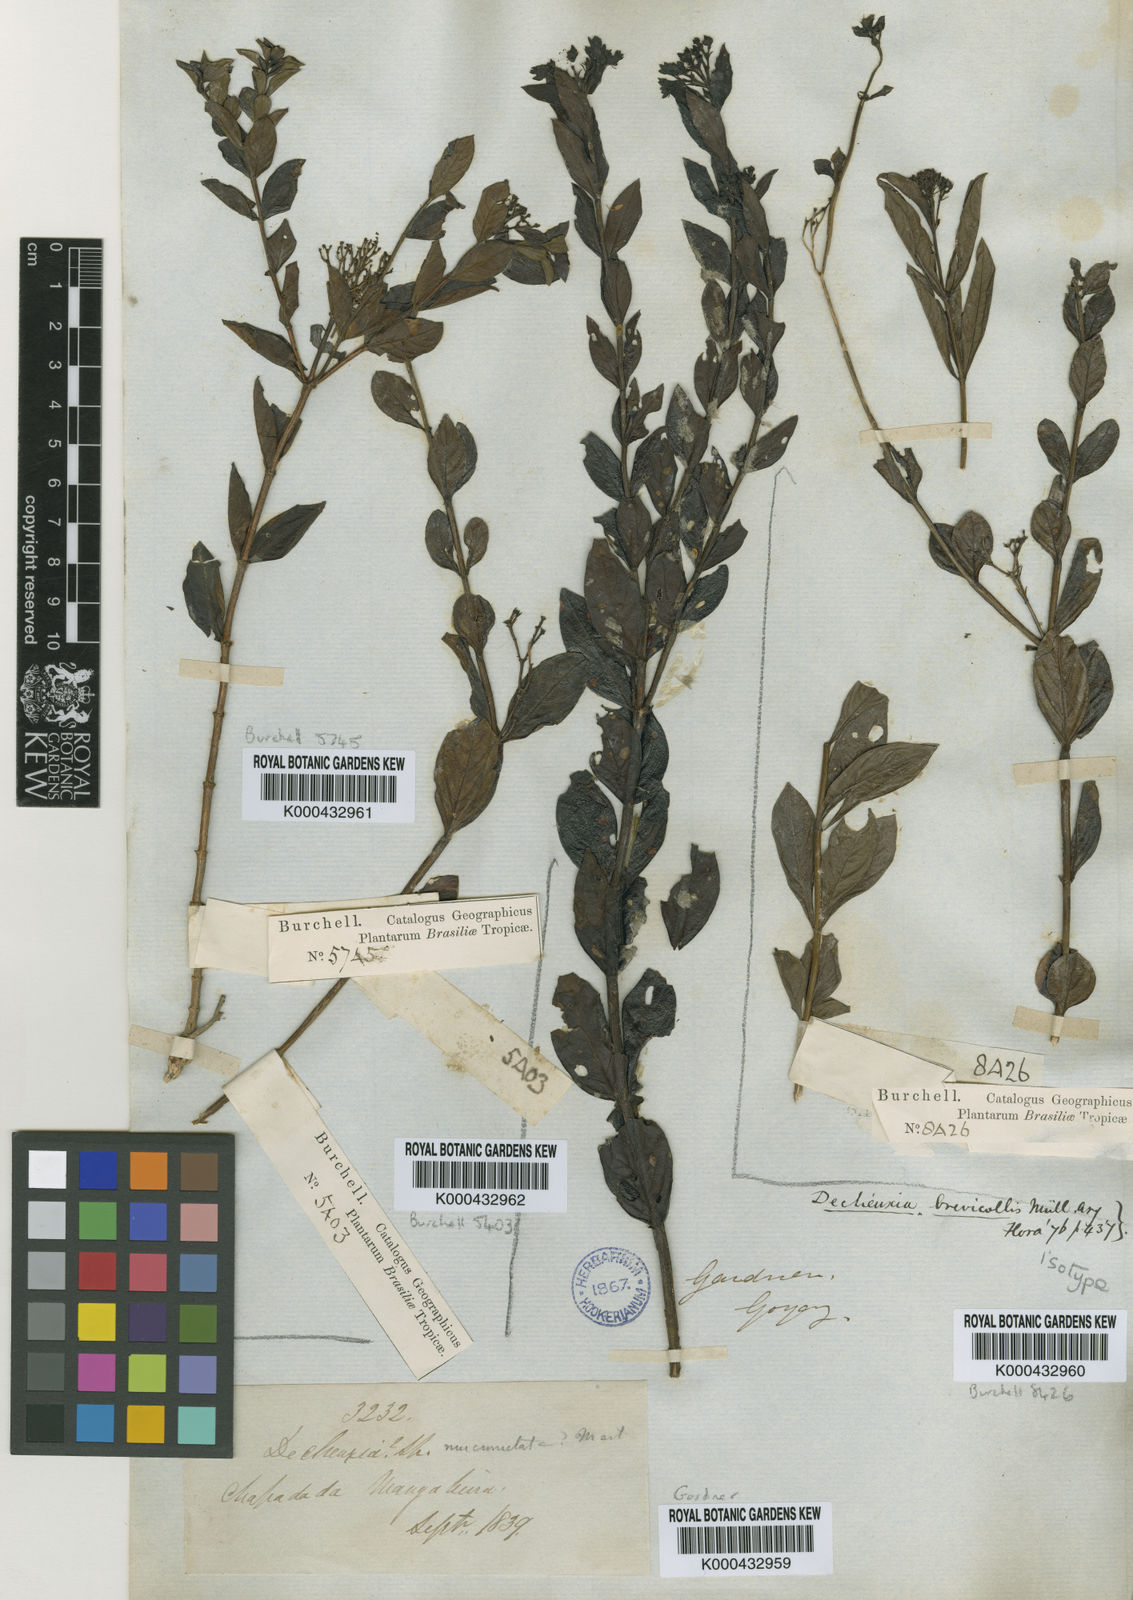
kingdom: Plantae
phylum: Tracheophyta
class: Magnoliopsida
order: Gentianales
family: Rubiaceae
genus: Declieuxia
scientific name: Declieuxia fruticosa
